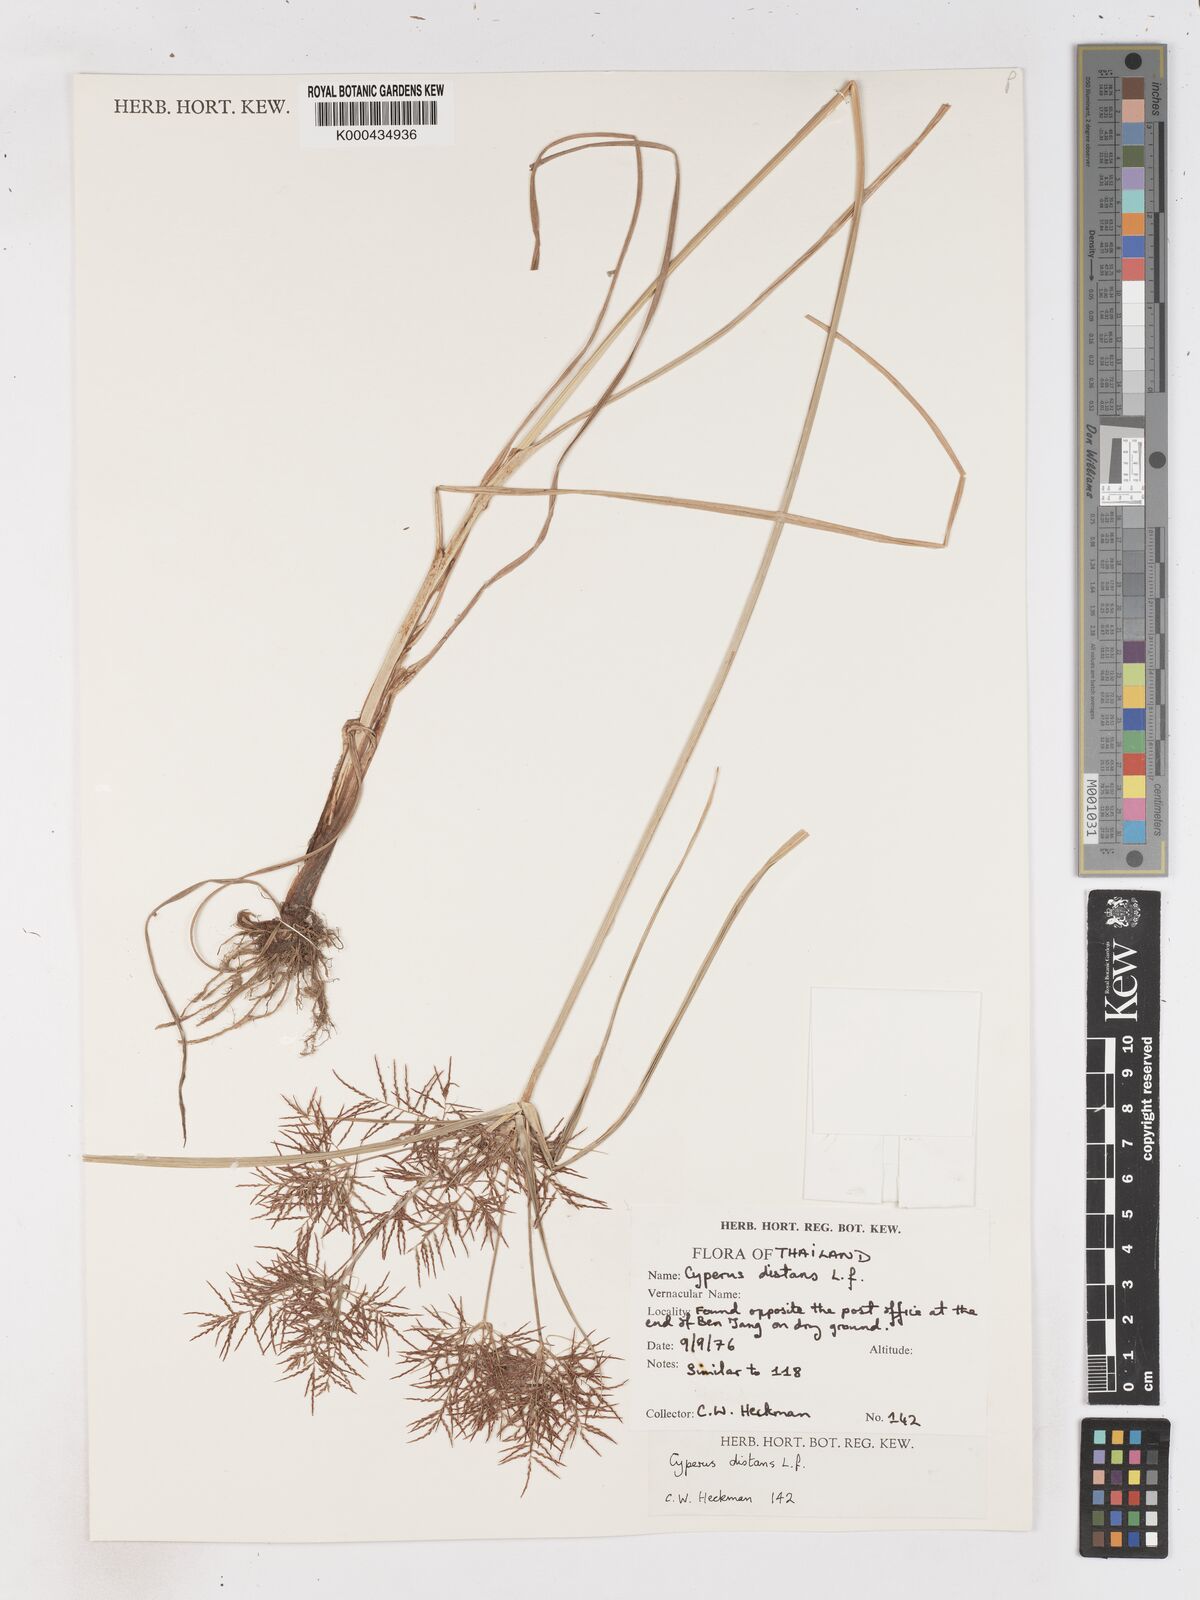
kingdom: Plantae
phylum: Tracheophyta
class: Liliopsida
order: Poales
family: Cyperaceae
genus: Cyperus
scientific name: Cyperus distans
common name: Slender cyperus
